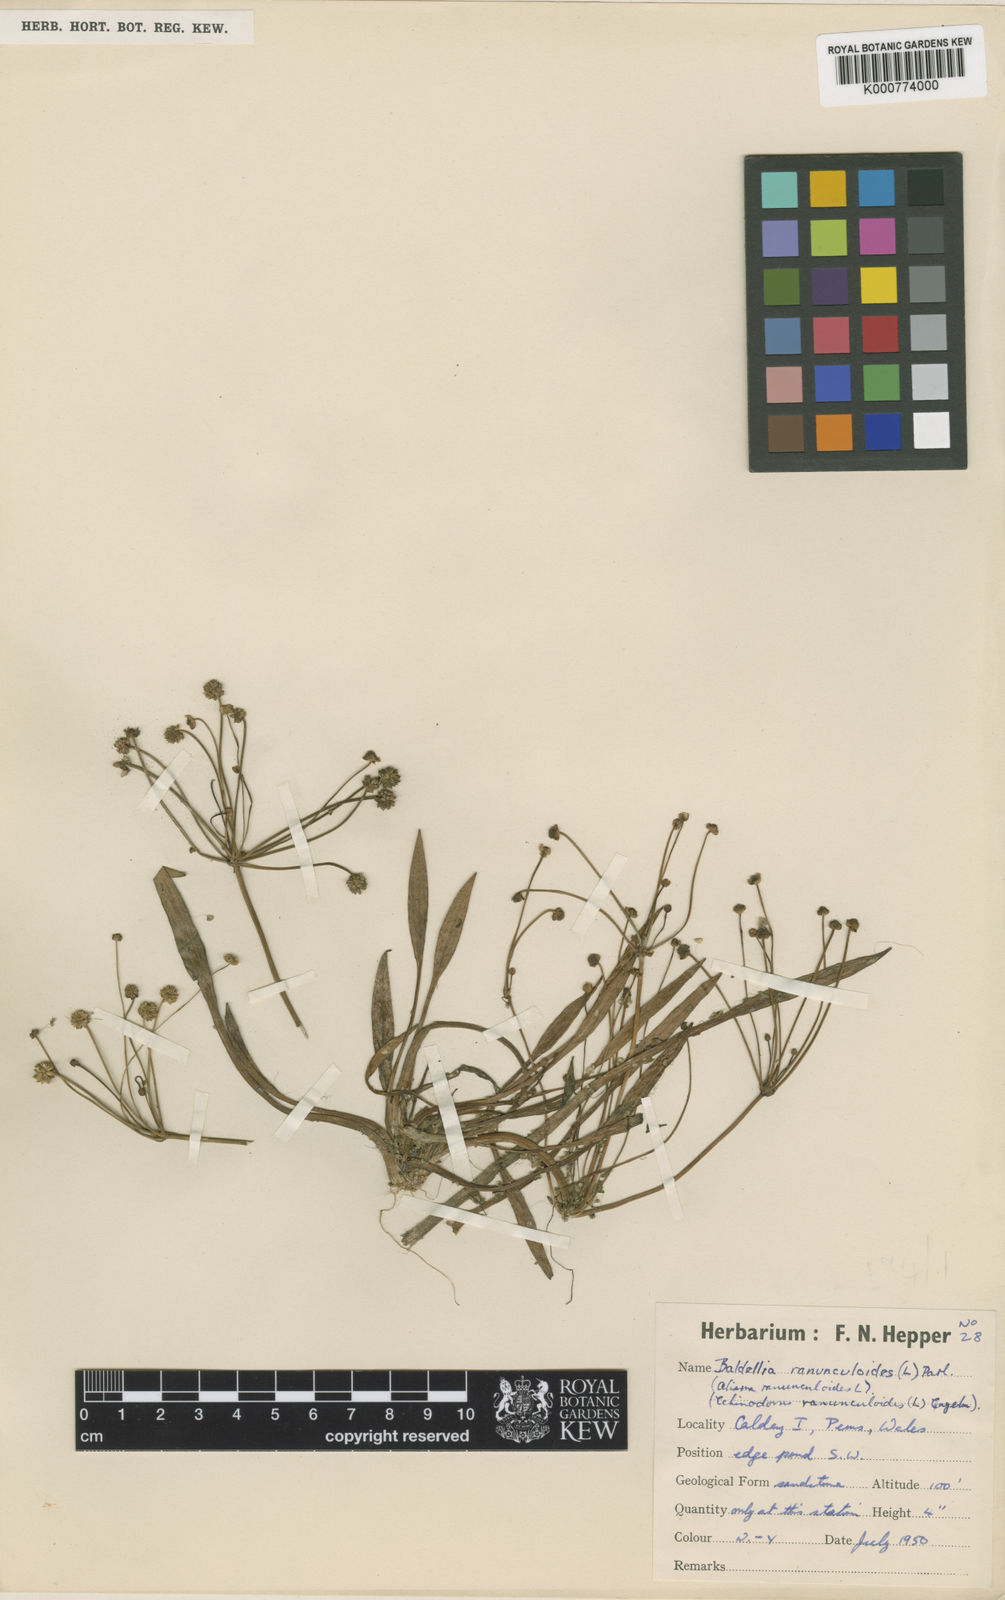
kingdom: Plantae
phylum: Tracheophyta
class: Liliopsida
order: Alismatales
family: Alismataceae
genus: Baldellia
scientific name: Baldellia ranunculoides
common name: Lesser water-plantain
